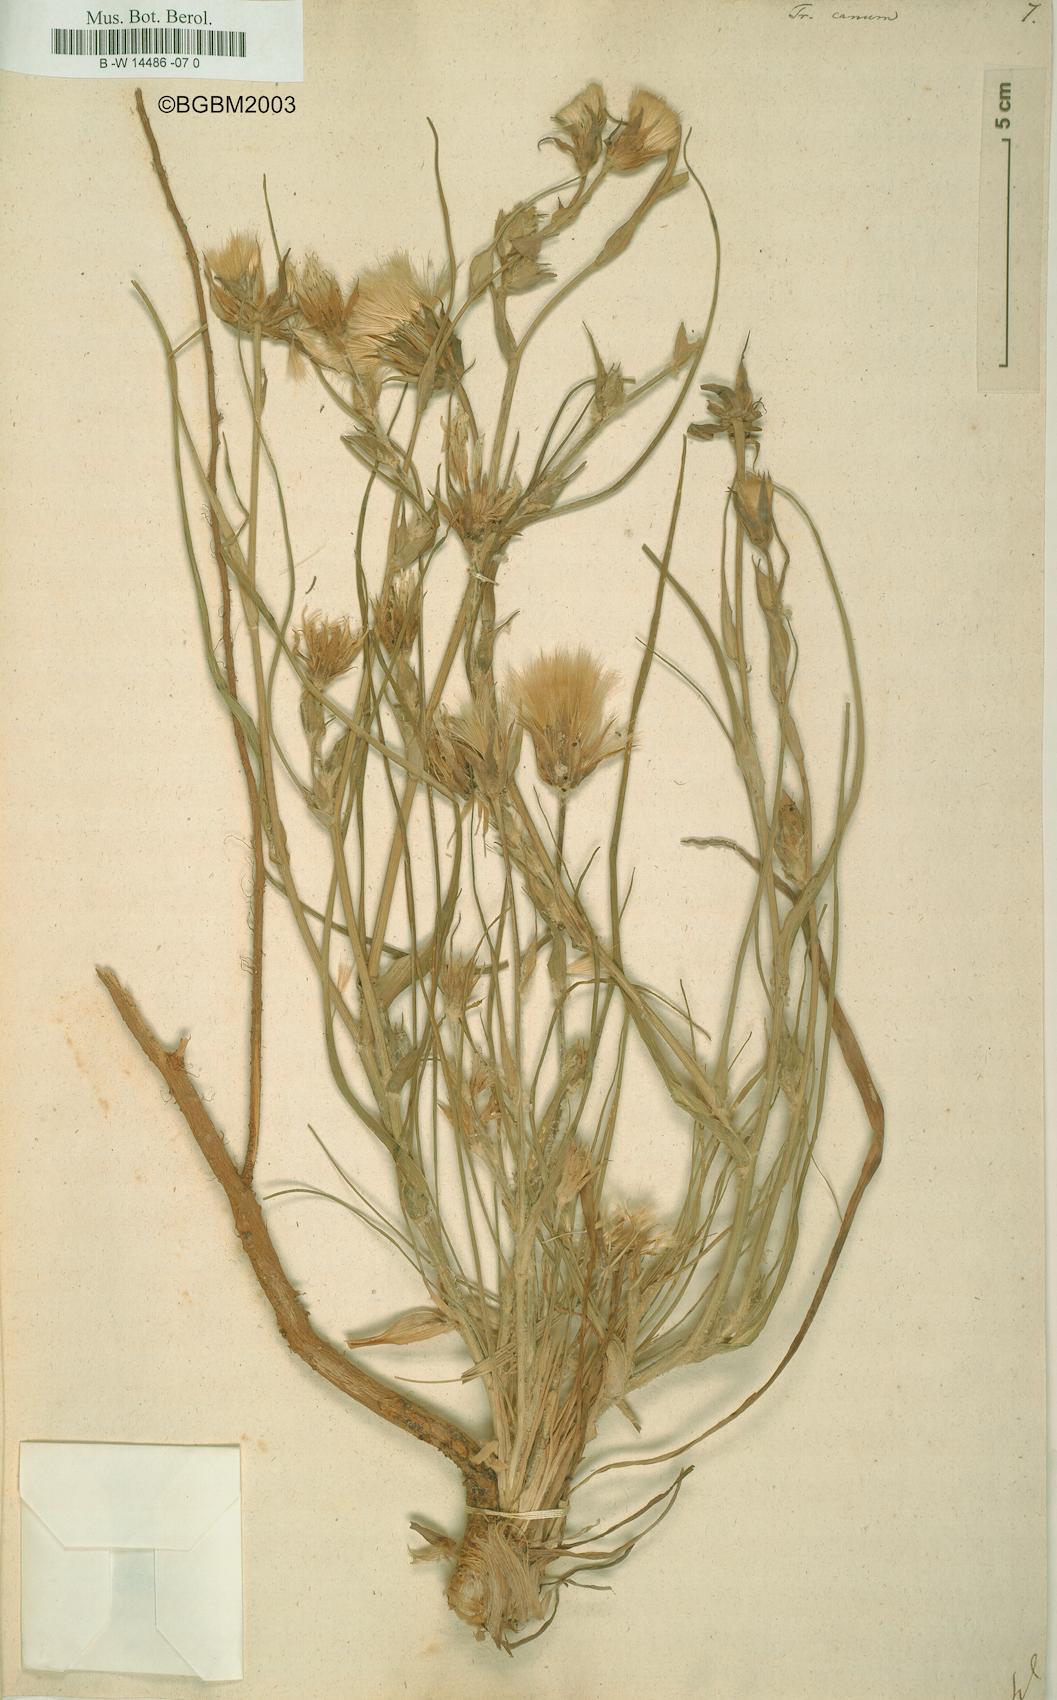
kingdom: Plantae
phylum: Tracheophyta
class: Magnoliopsida
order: Asterales
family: Asteraceae
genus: Tragopogon
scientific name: Tragopogon floccosus
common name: Woolly goatsbeard
